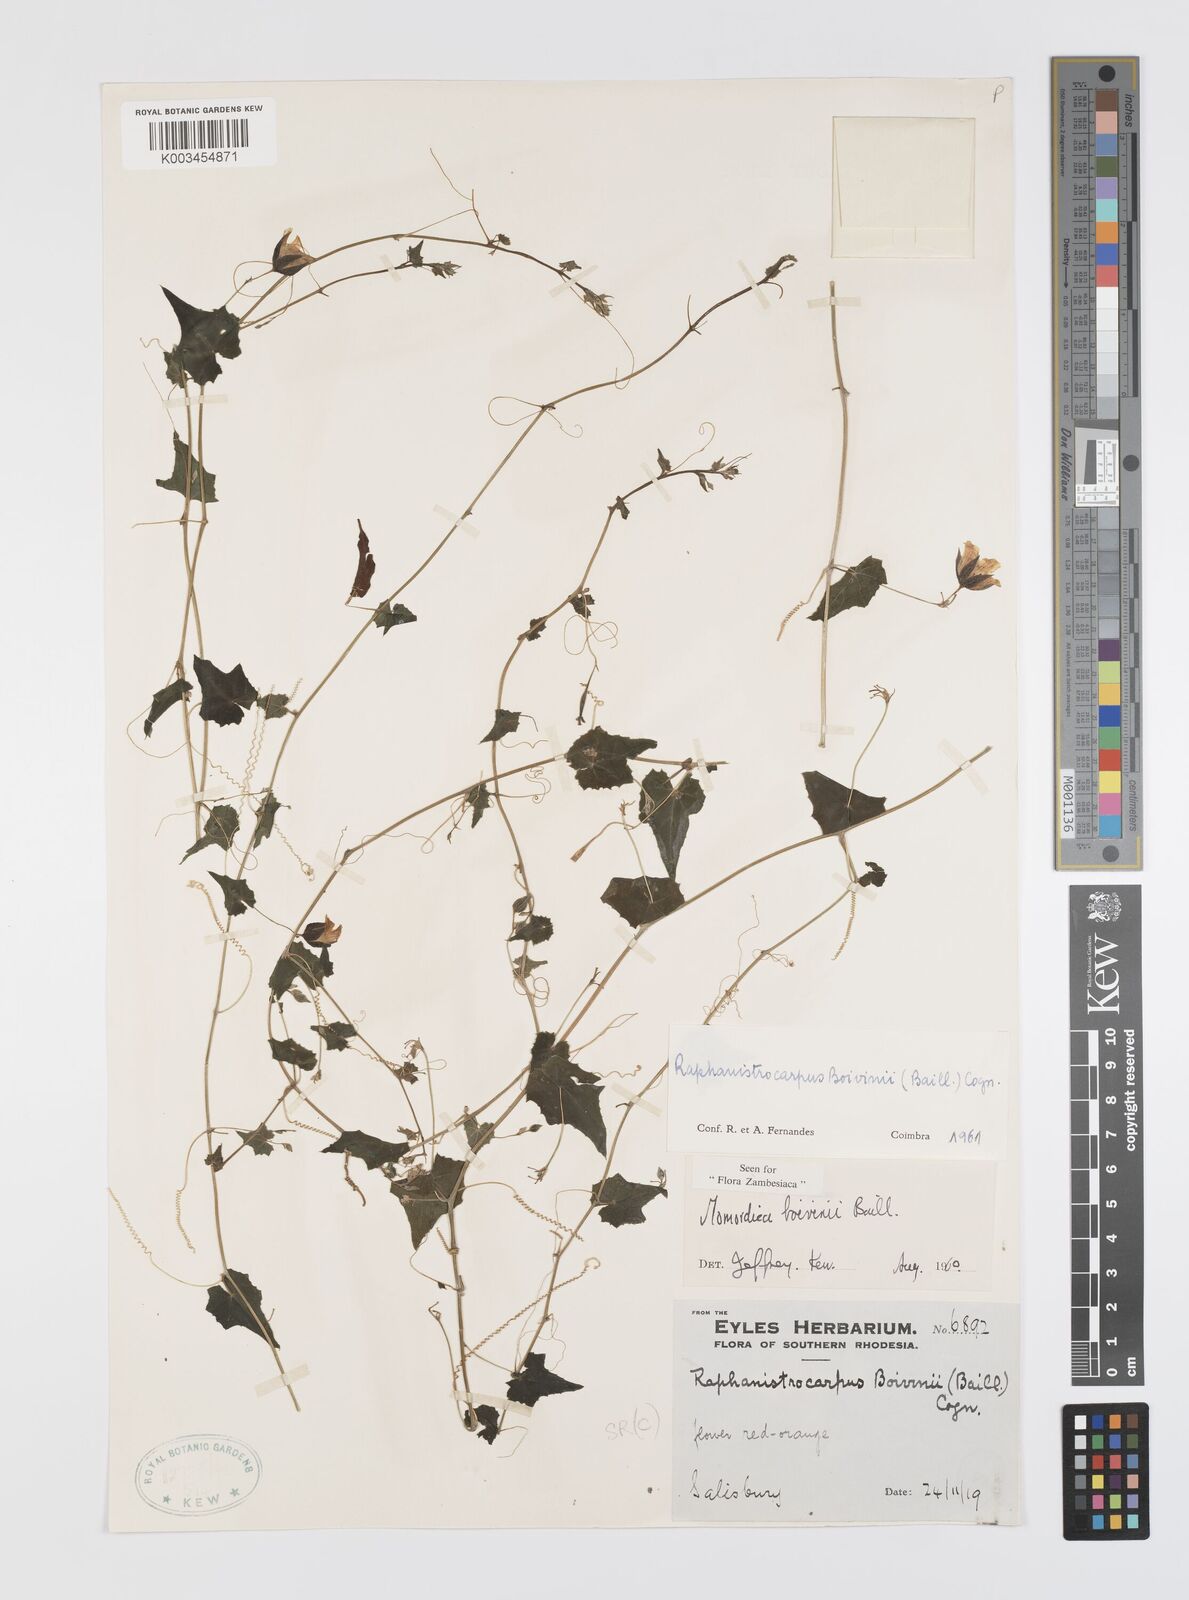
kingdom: Plantae
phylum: Tracheophyta
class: Magnoliopsida
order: Cucurbitales
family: Cucurbitaceae
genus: Momordica
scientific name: Momordica boivinii
